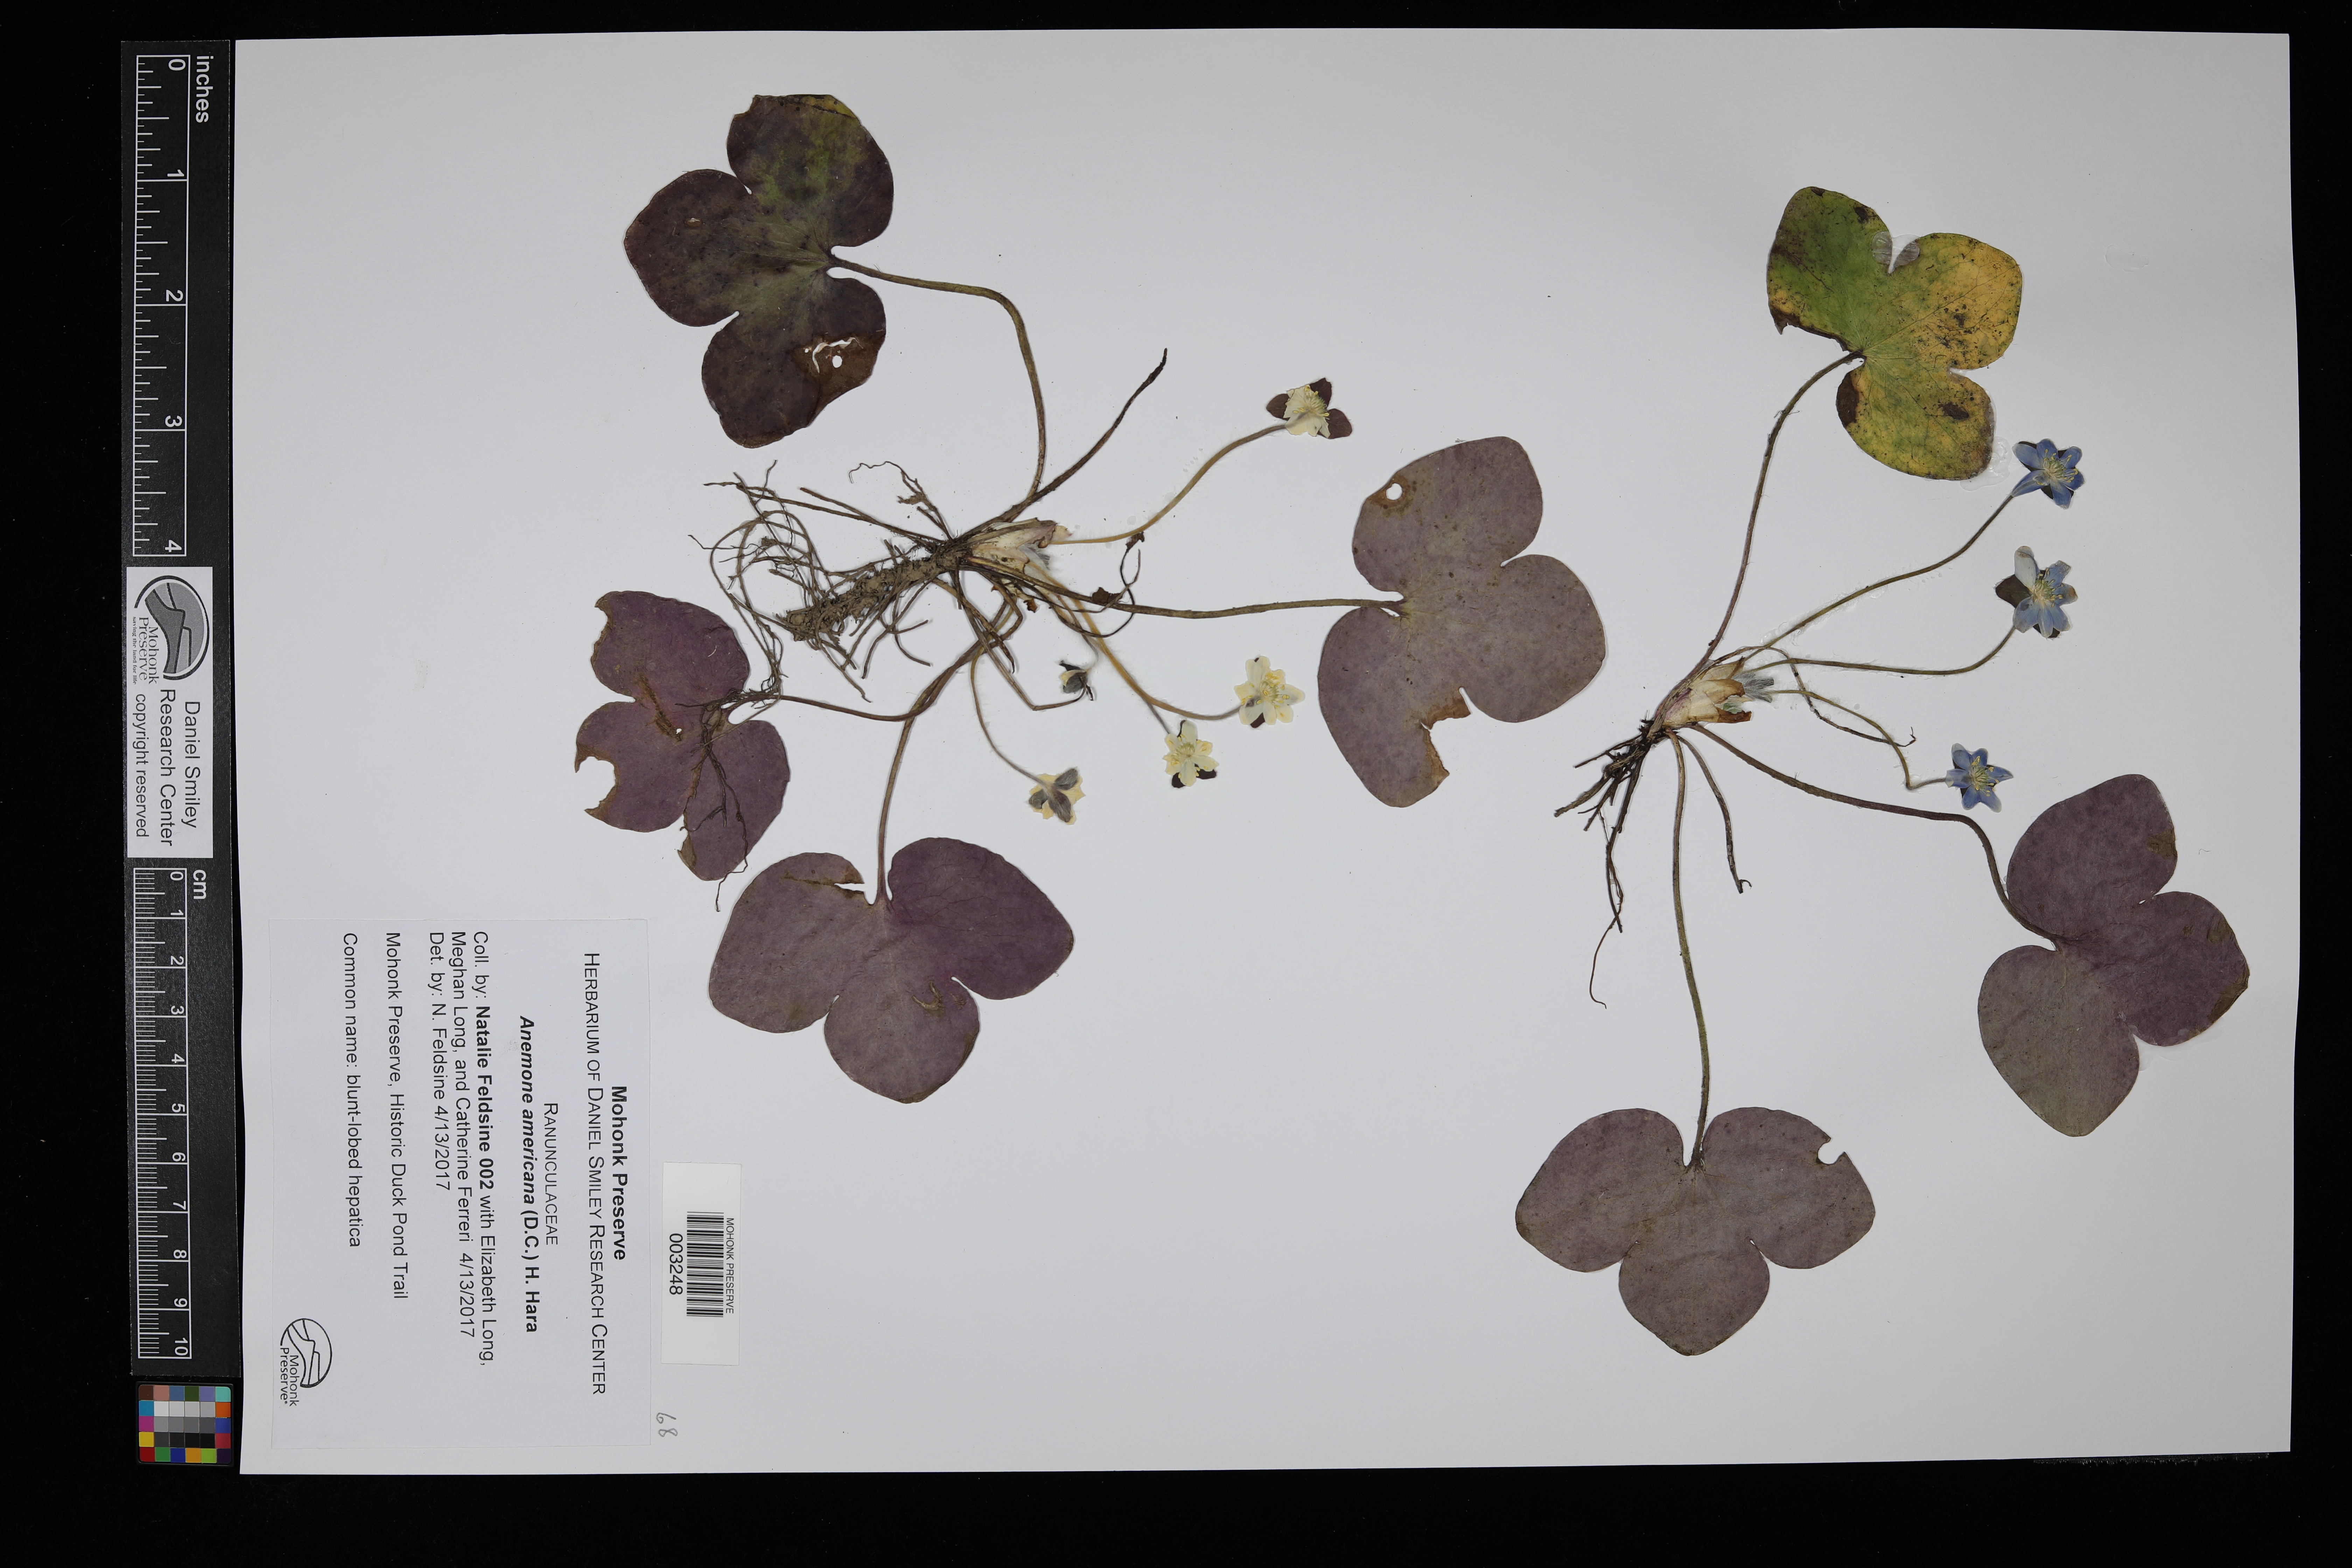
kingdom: Plantae
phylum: Tracheophyta
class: Magnoliopsida
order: Ericales
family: Ericaceae
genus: Chamaedaphne
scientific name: Chamaedaphne calyculata
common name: Leatherleaf
